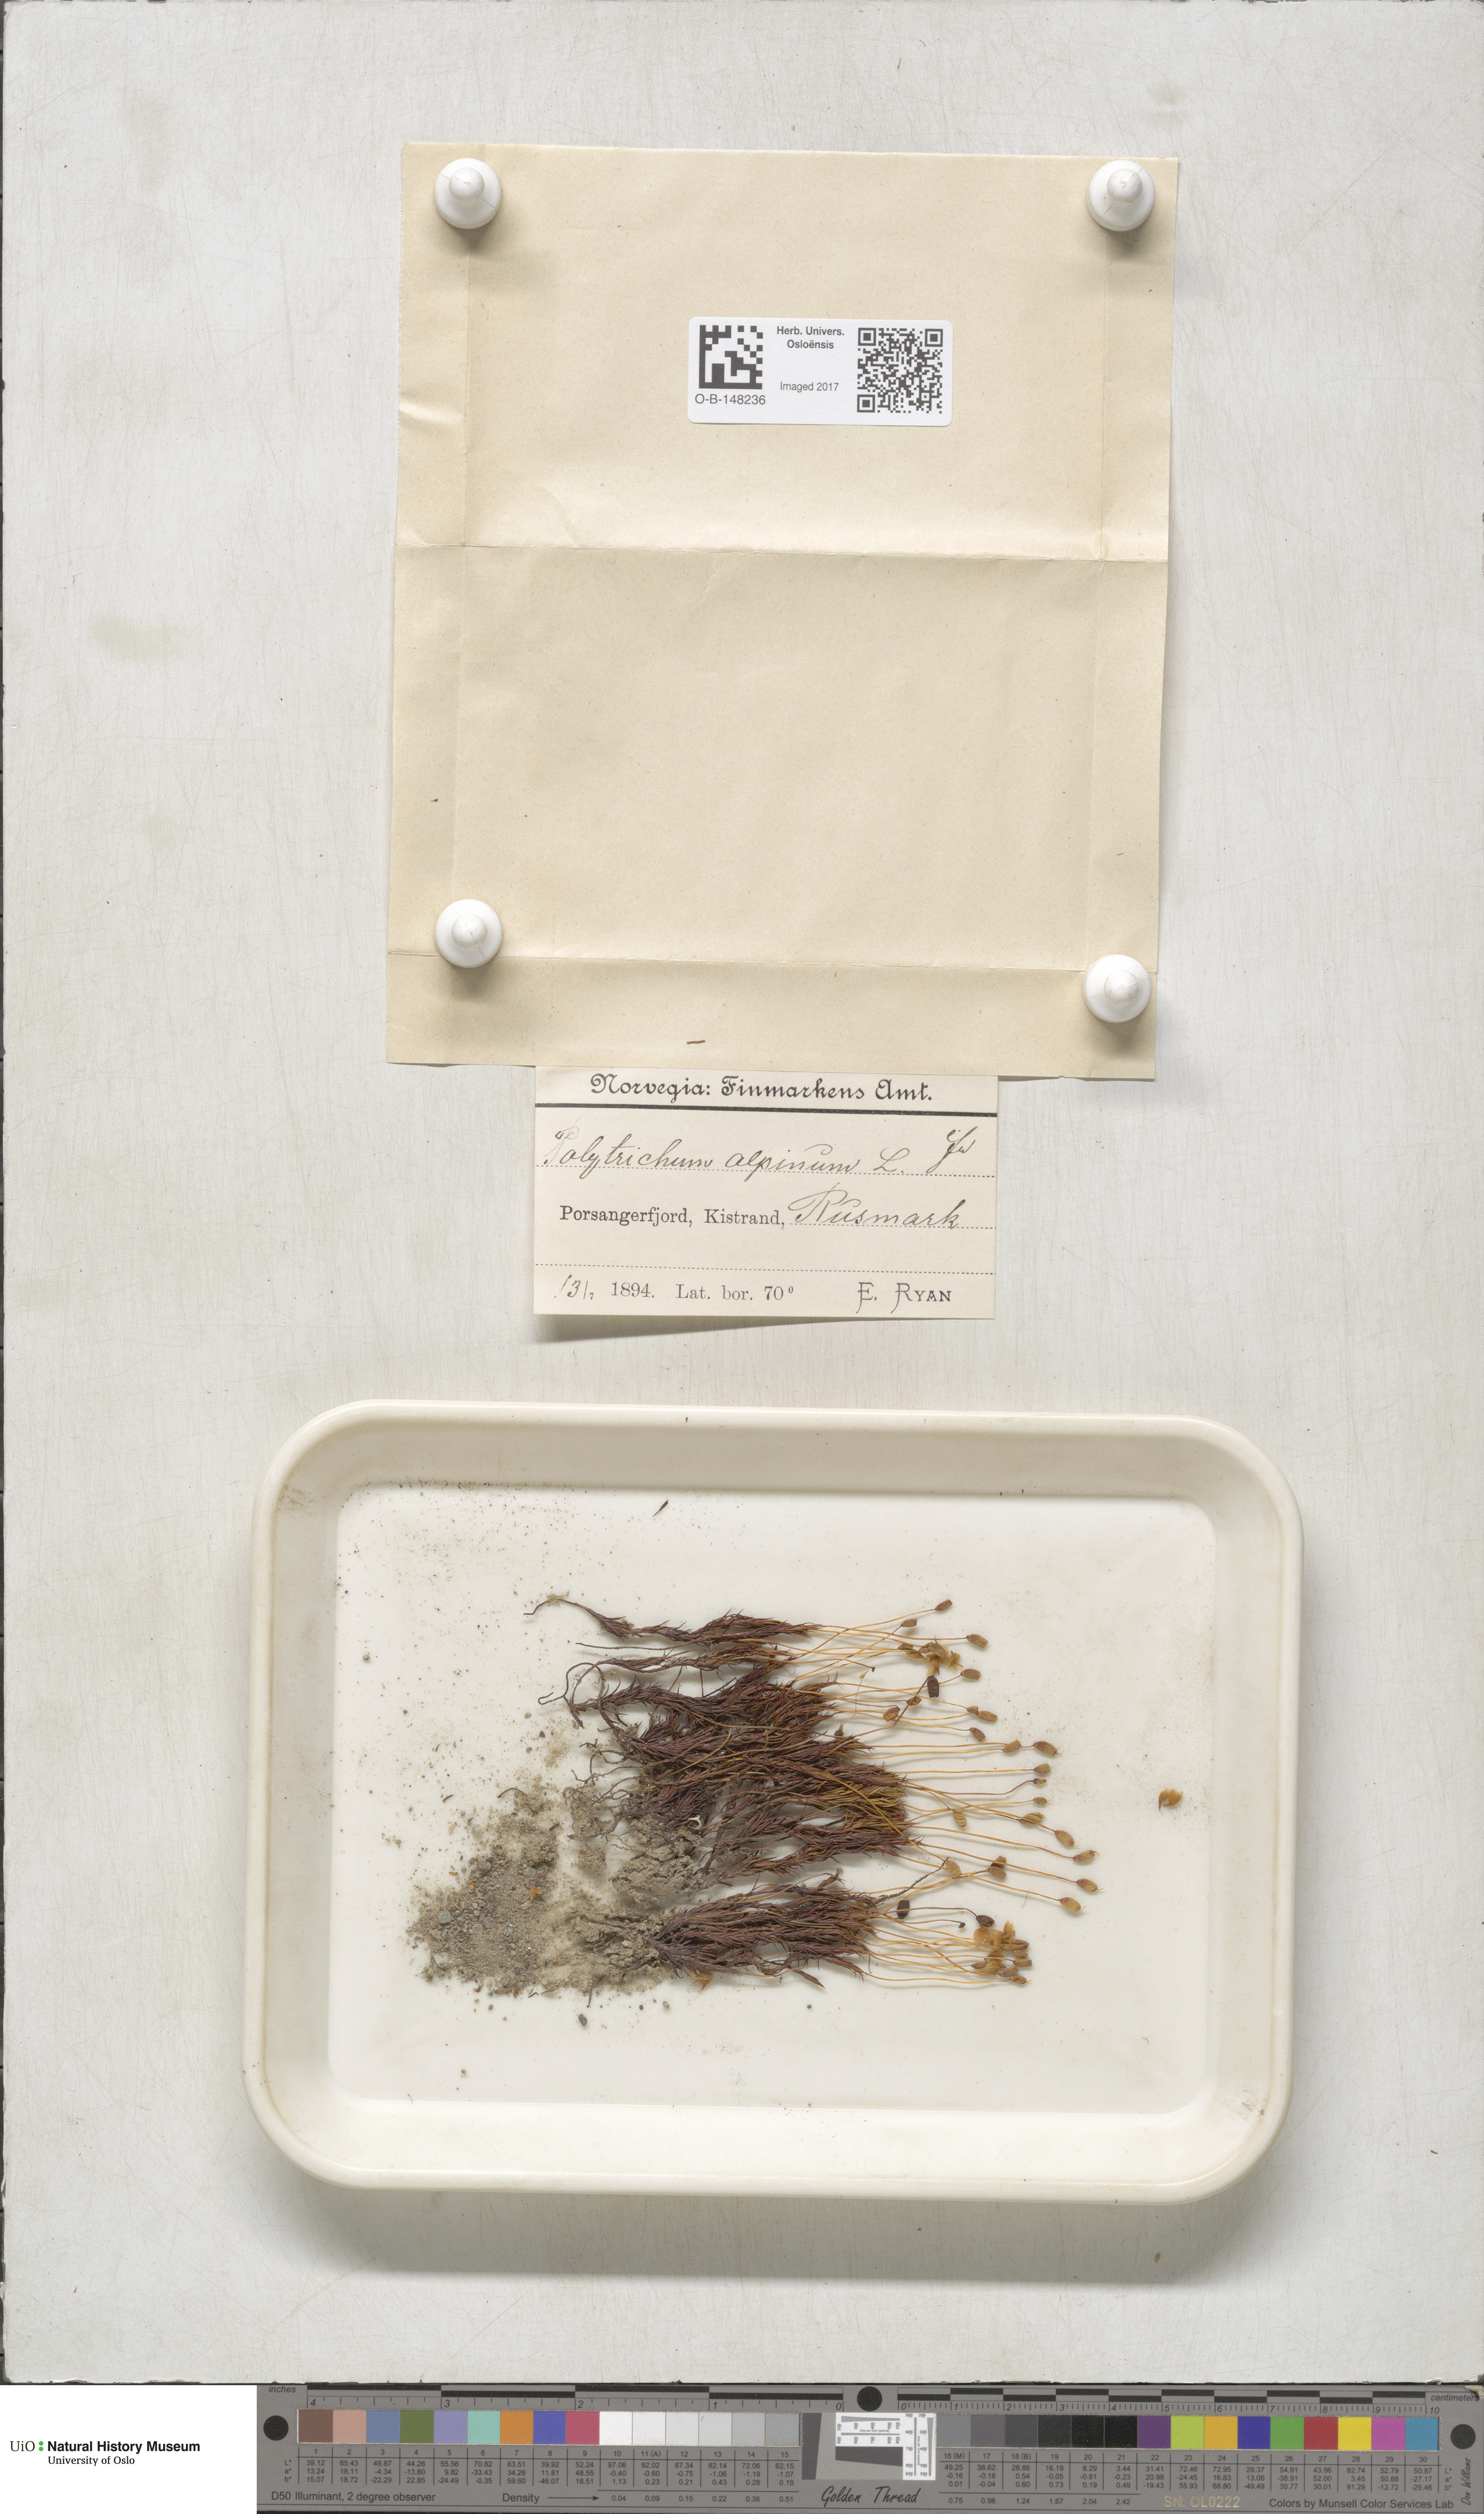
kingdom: Plantae
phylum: Bryophyta
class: Polytrichopsida
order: Polytrichales
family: Polytrichaceae
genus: Polytrichastrum
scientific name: Polytrichastrum alpinum
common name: Alpine haircap
